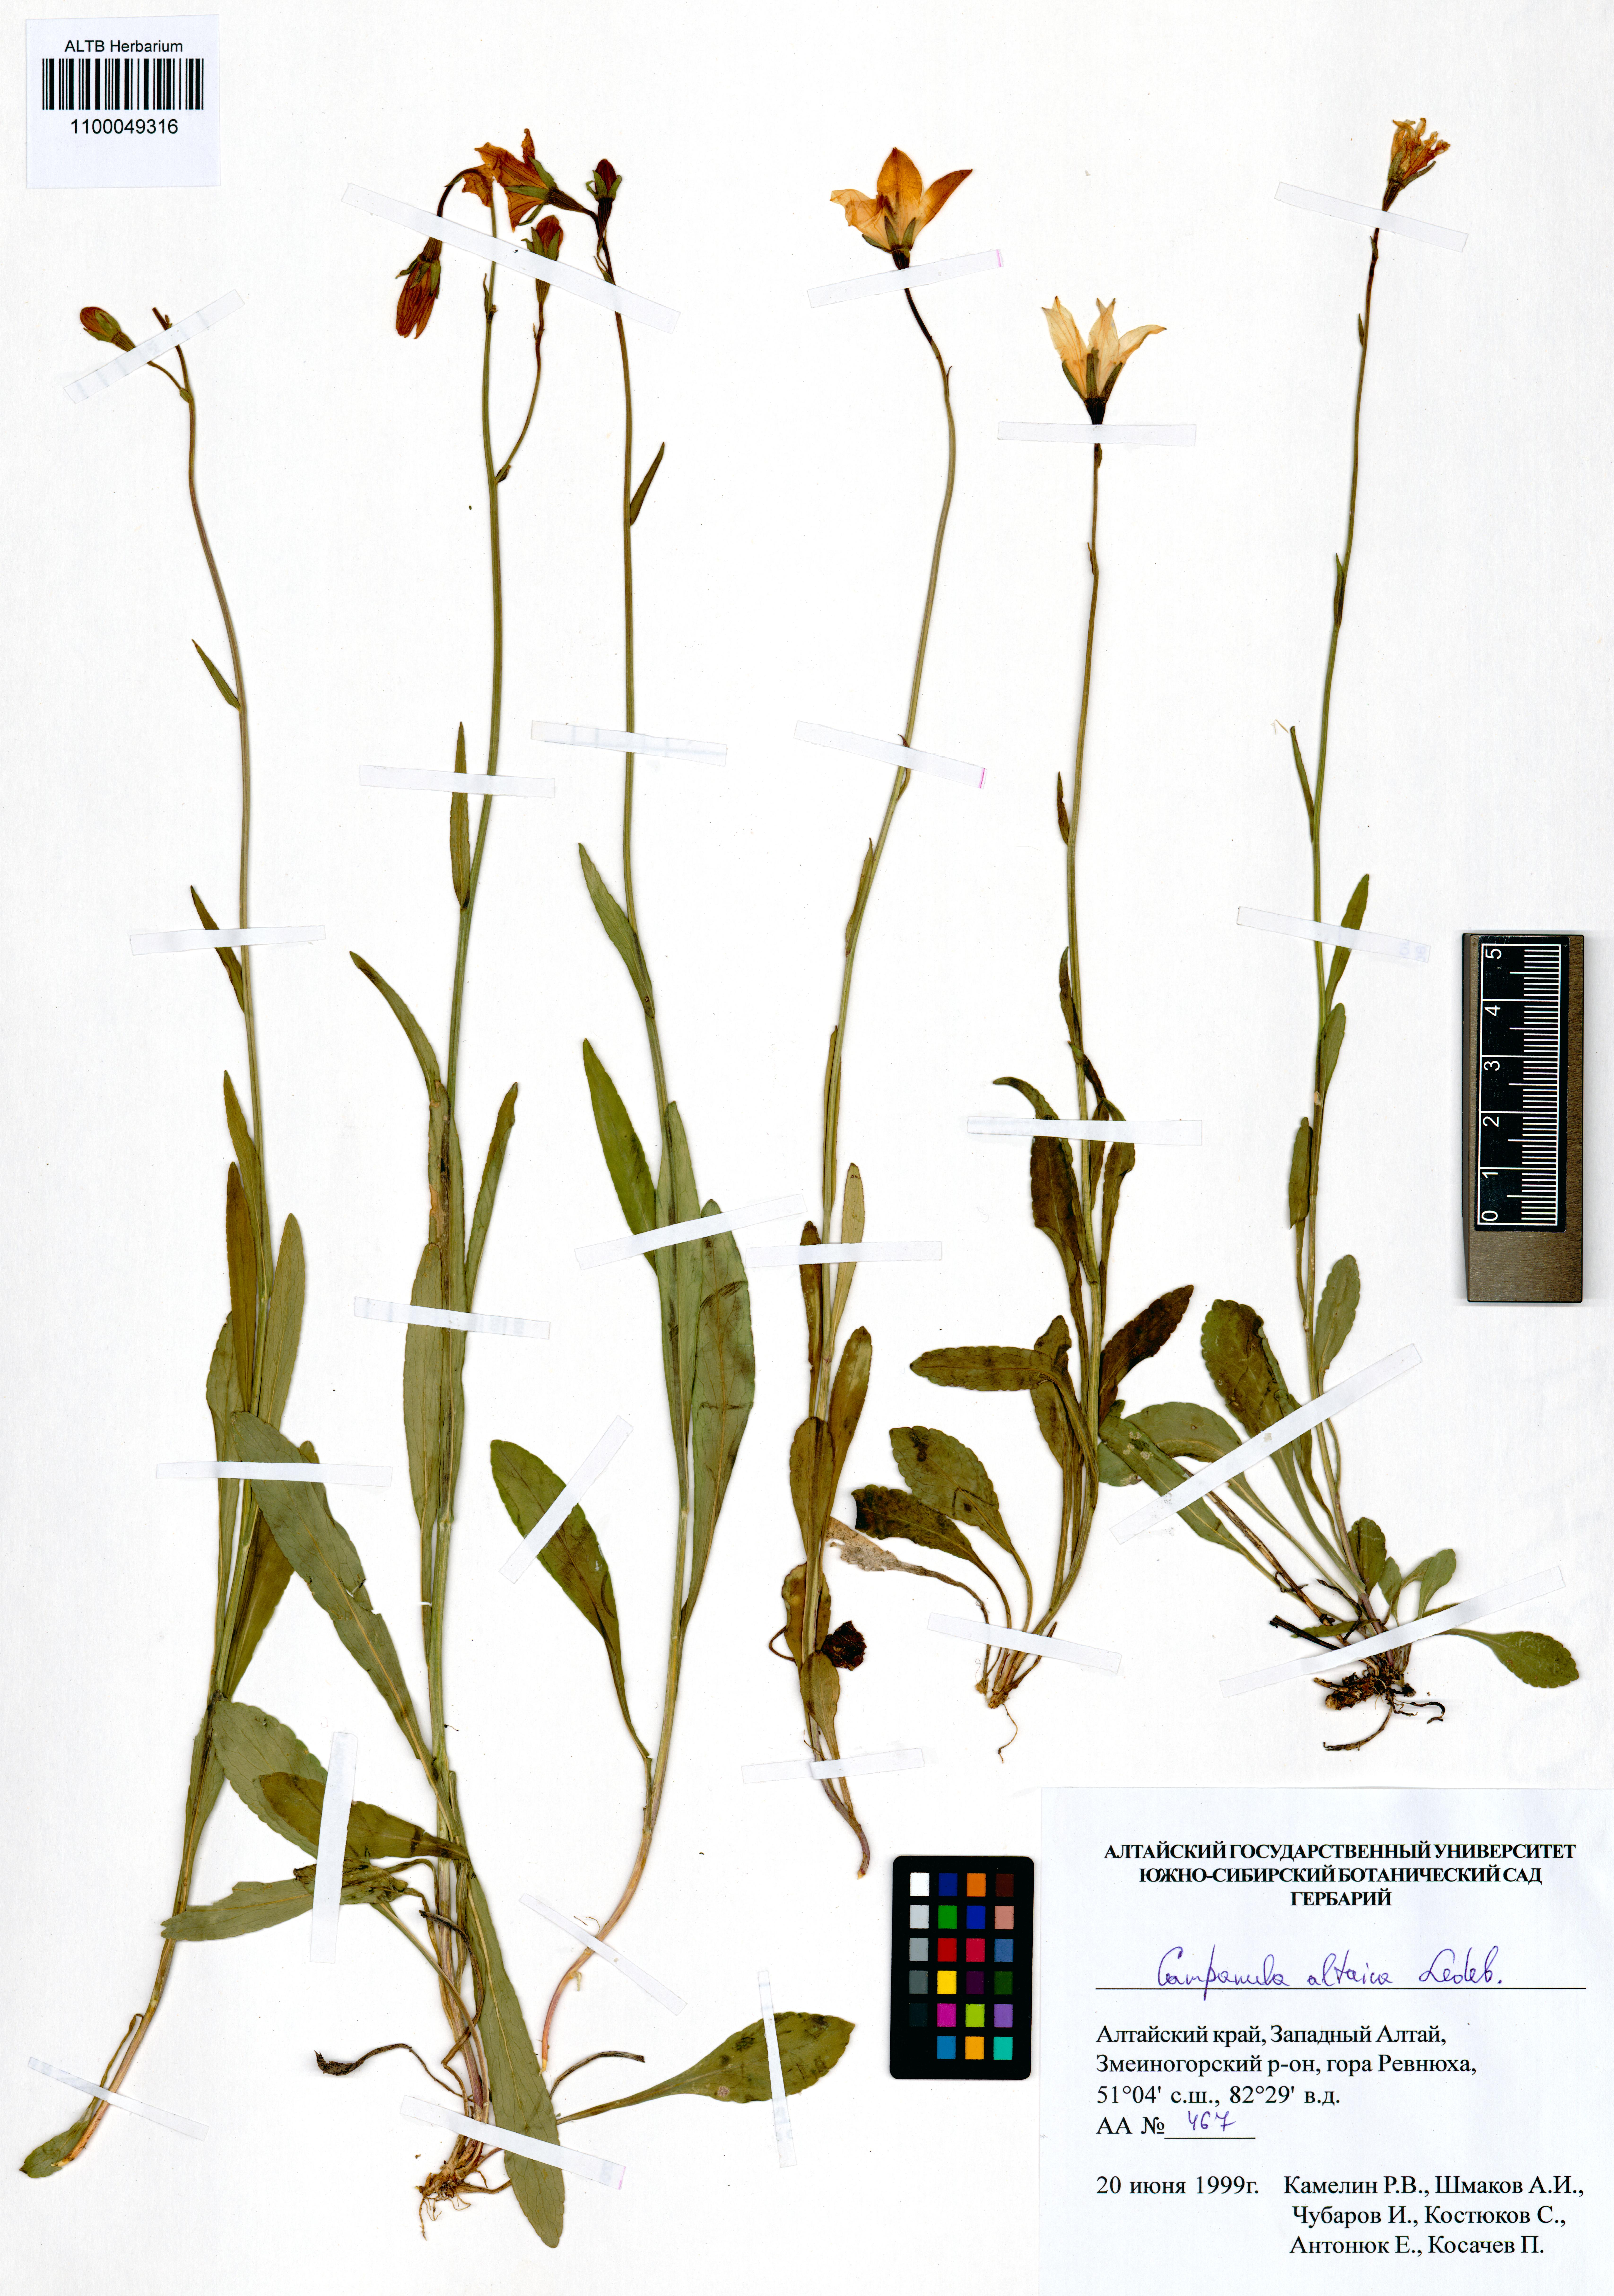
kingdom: Plantae
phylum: Tracheophyta
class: Magnoliopsida
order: Asterales
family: Campanulaceae
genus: Campanula
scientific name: Campanula stevenii
